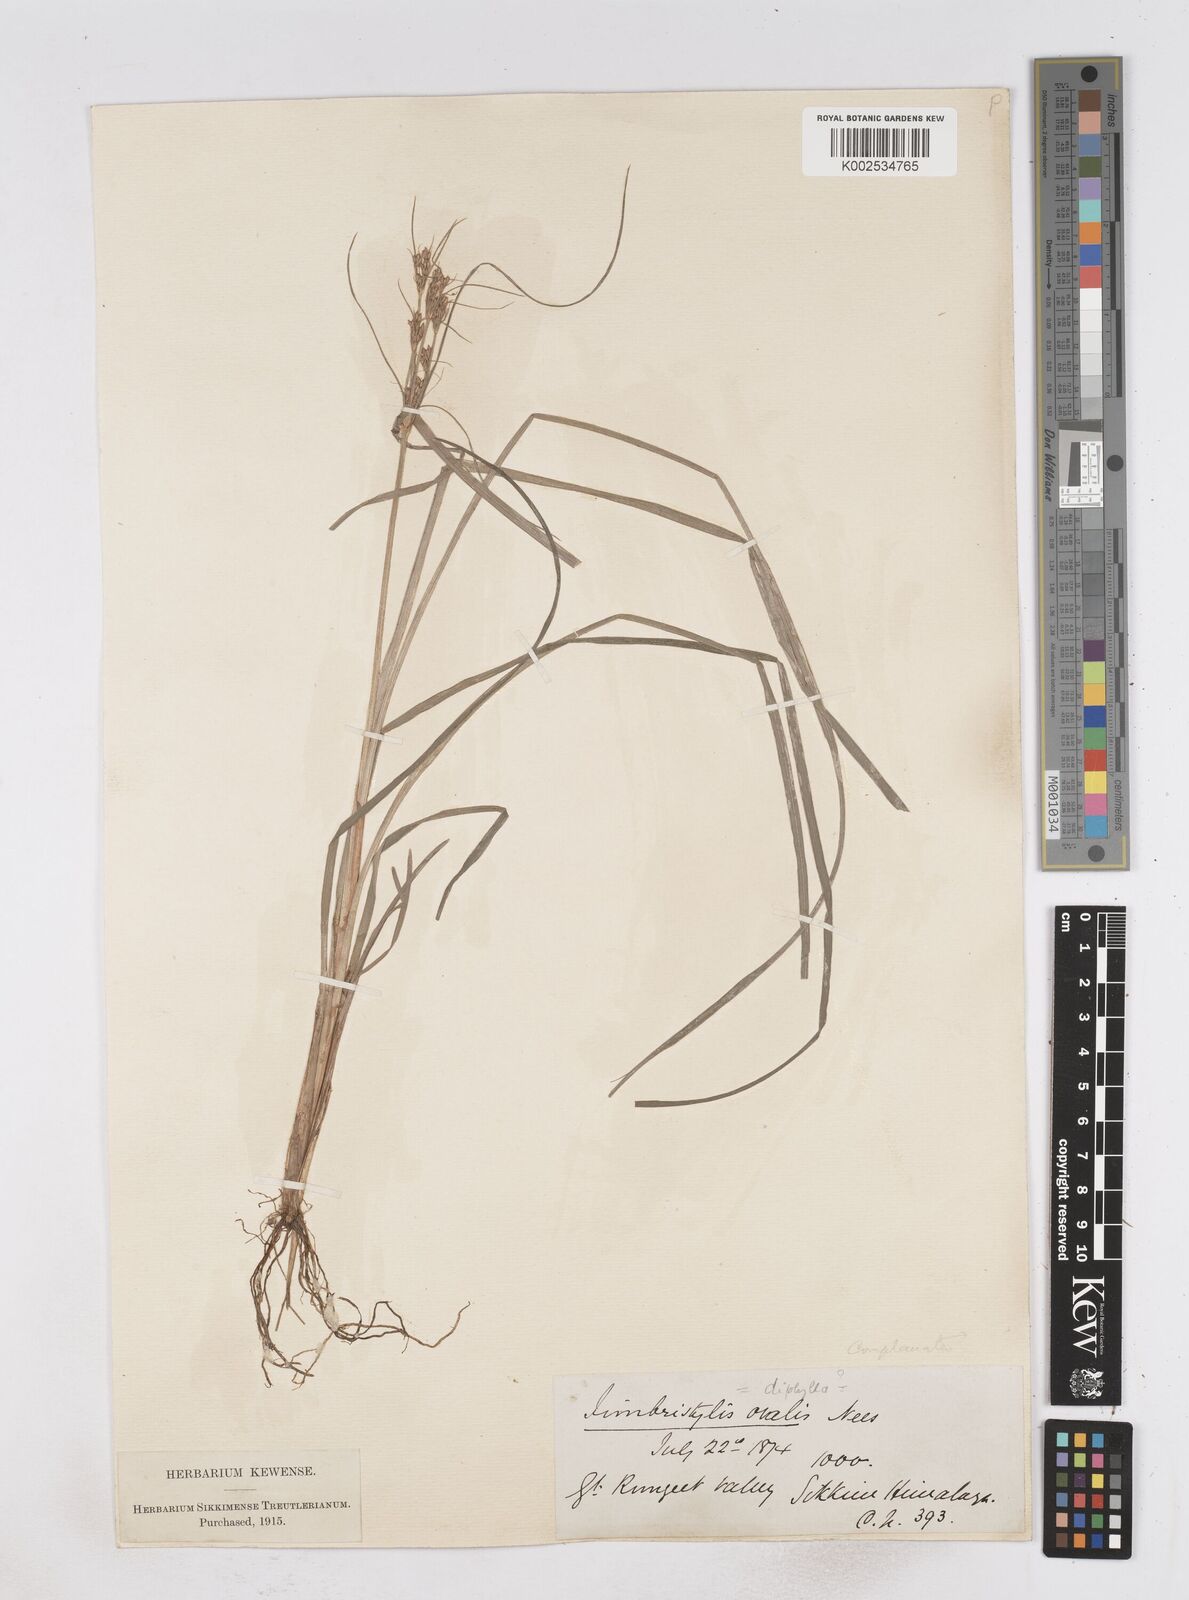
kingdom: Plantae
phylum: Tracheophyta
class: Liliopsida
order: Poales
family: Cyperaceae
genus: Fimbristylis
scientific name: Fimbristylis complanata
